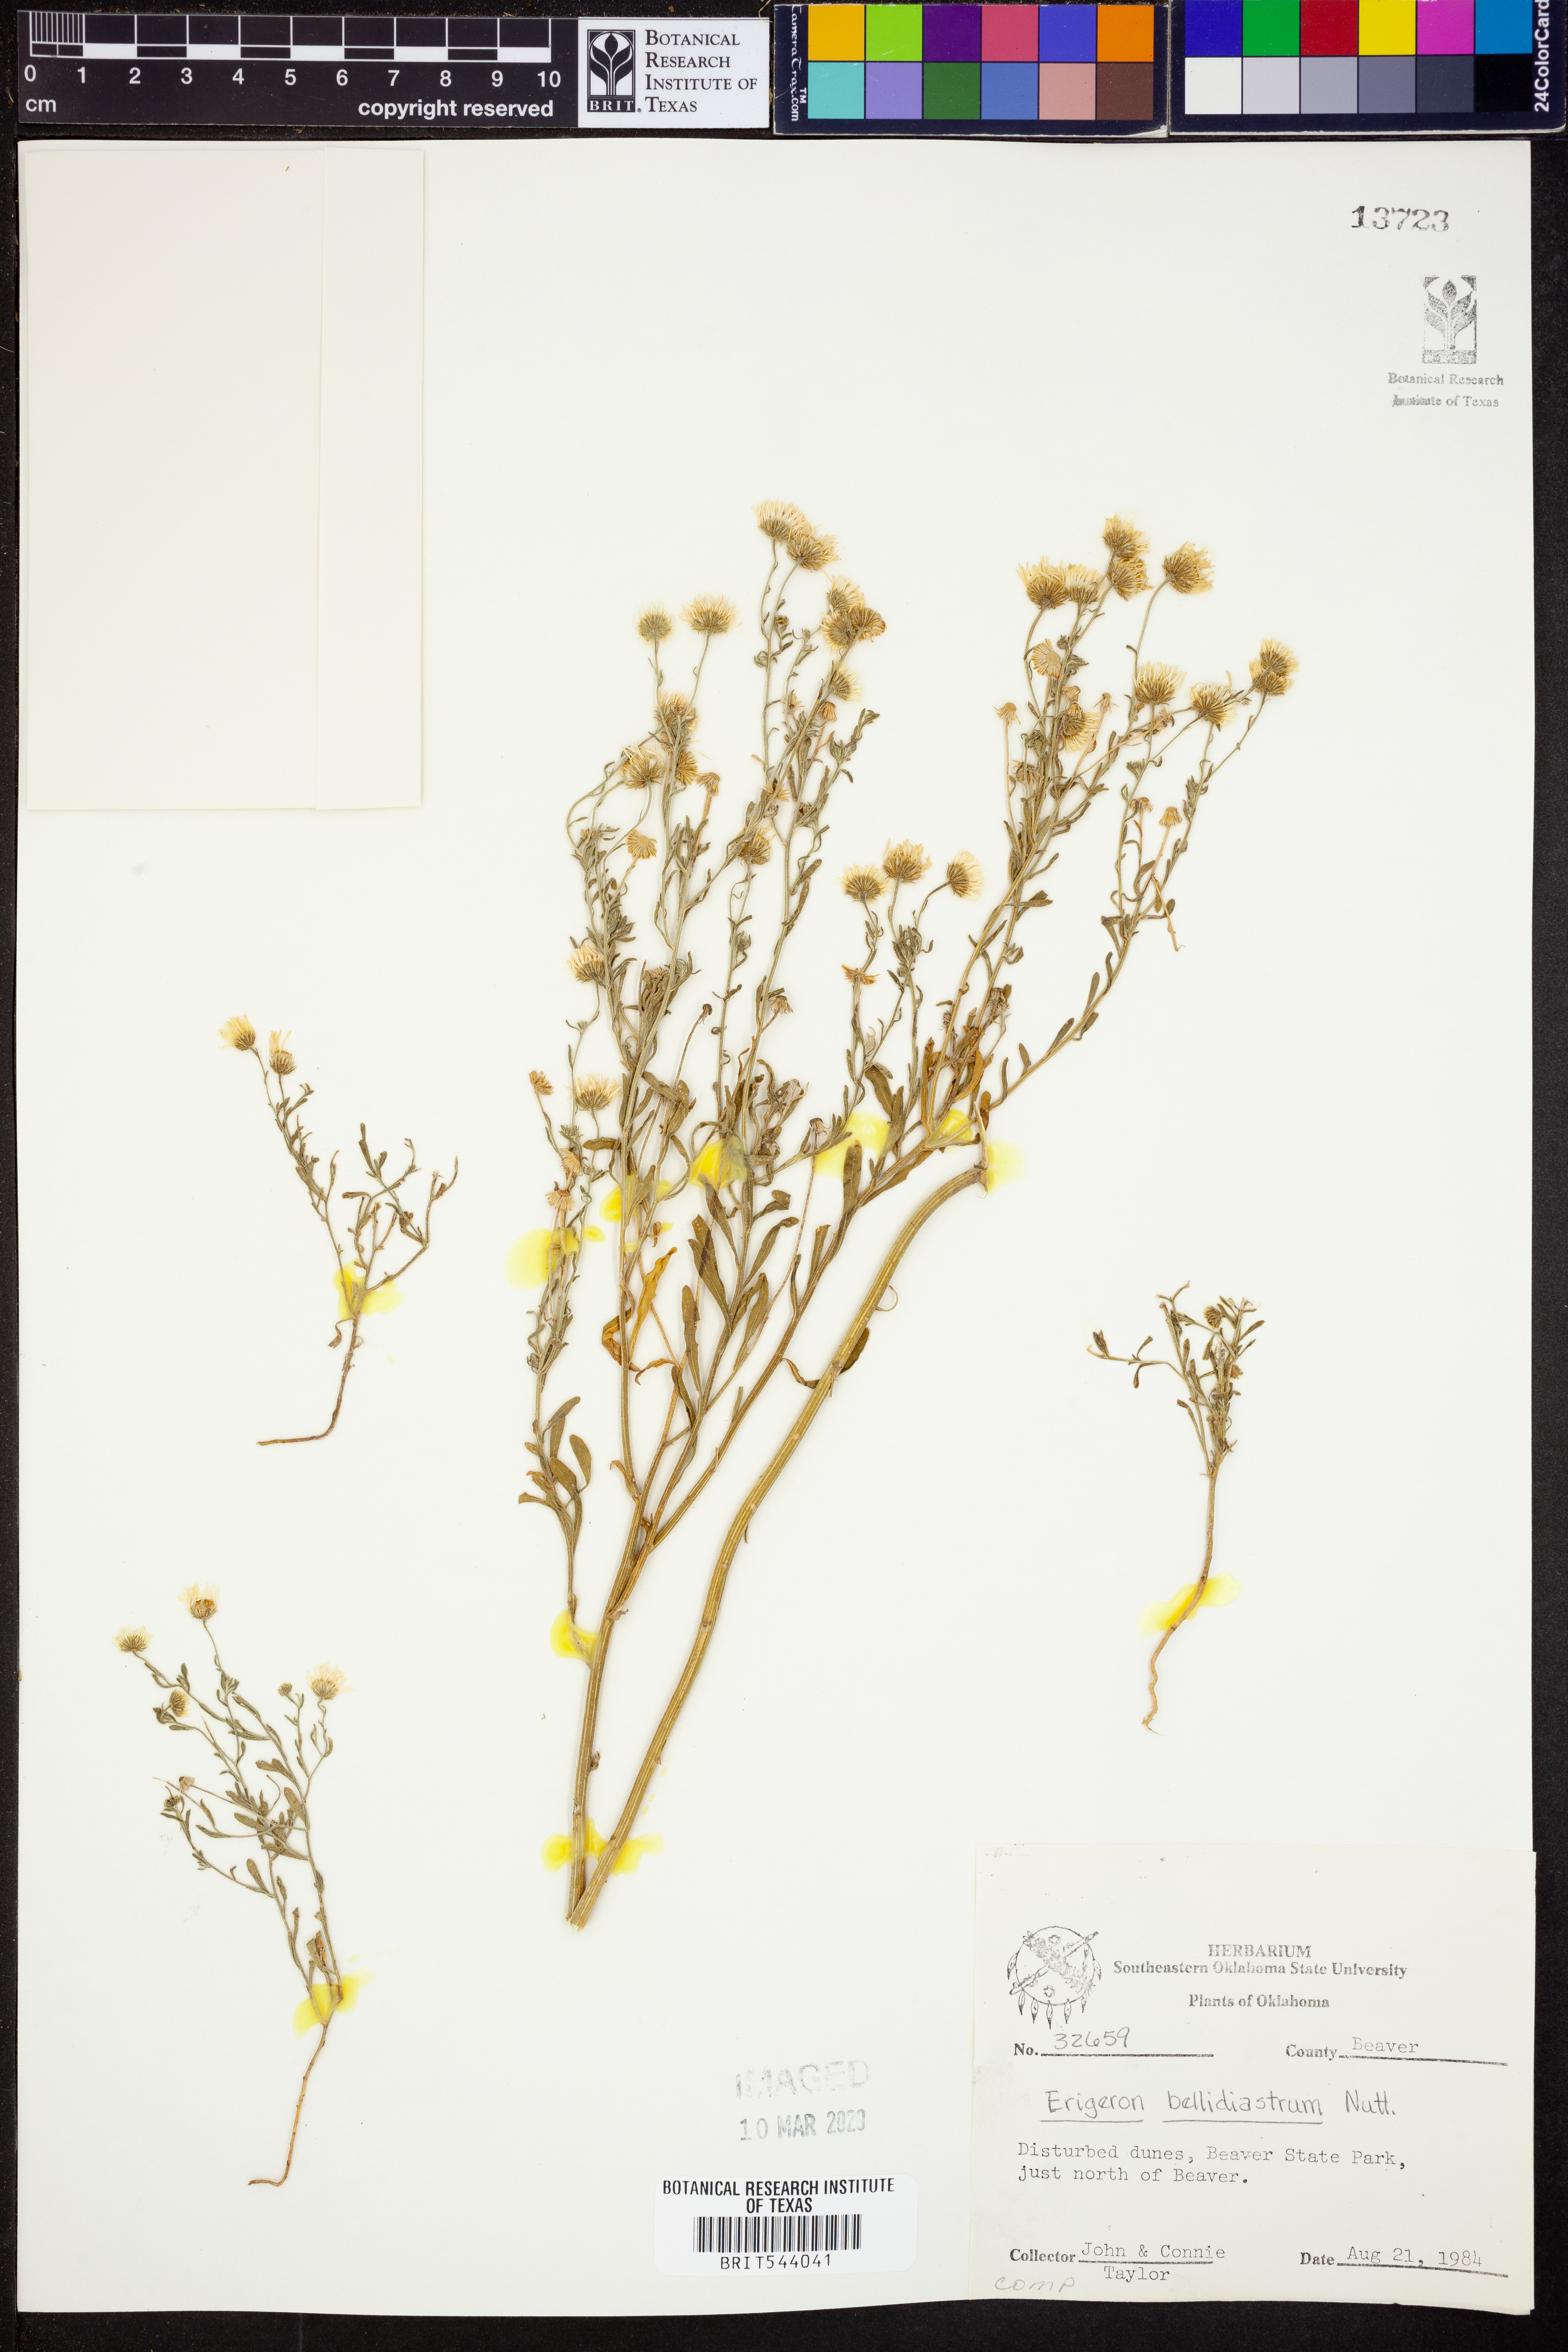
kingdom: Plantae
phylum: Tracheophyta
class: Magnoliopsida
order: Asterales
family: Asteraceae
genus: Erigeron
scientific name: Erigeron bellidiastrum
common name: Sand fleabane
